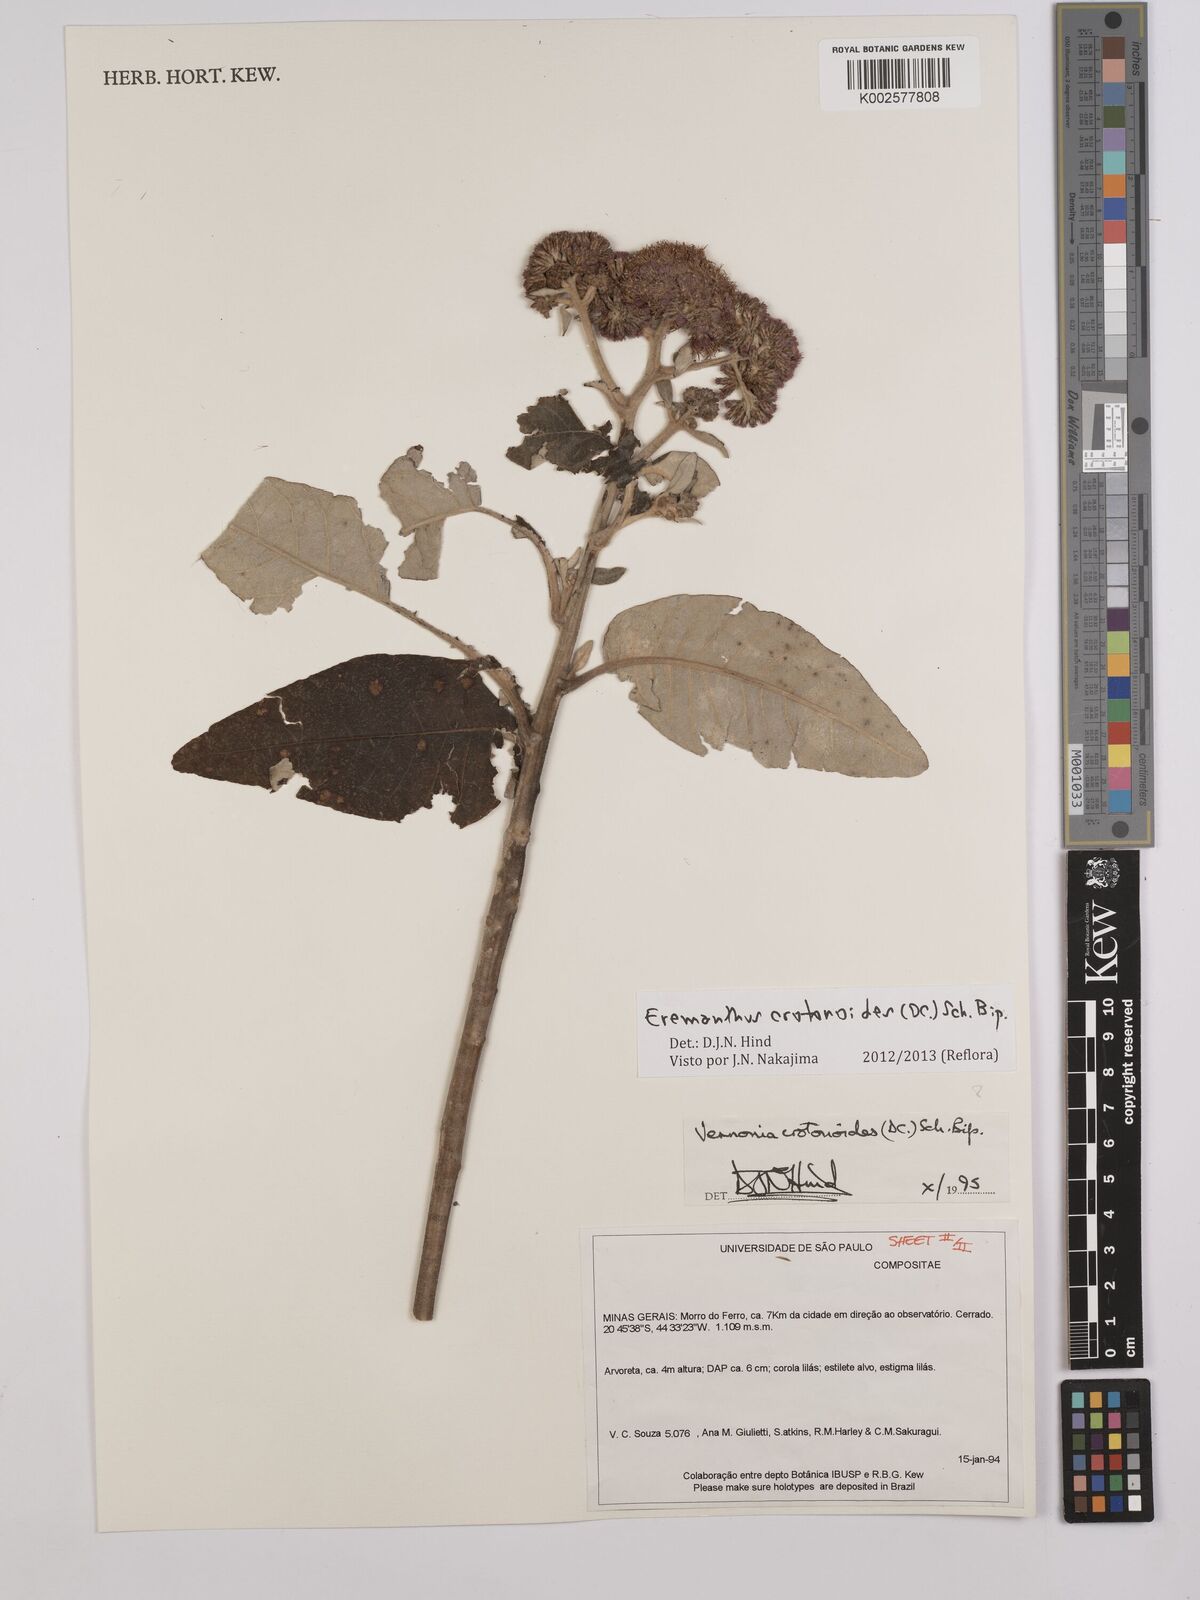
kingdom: Plantae
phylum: Tracheophyta
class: Magnoliopsida
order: Asterales
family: Asteraceae
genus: Eremanthus
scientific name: Eremanthus crotonoides
